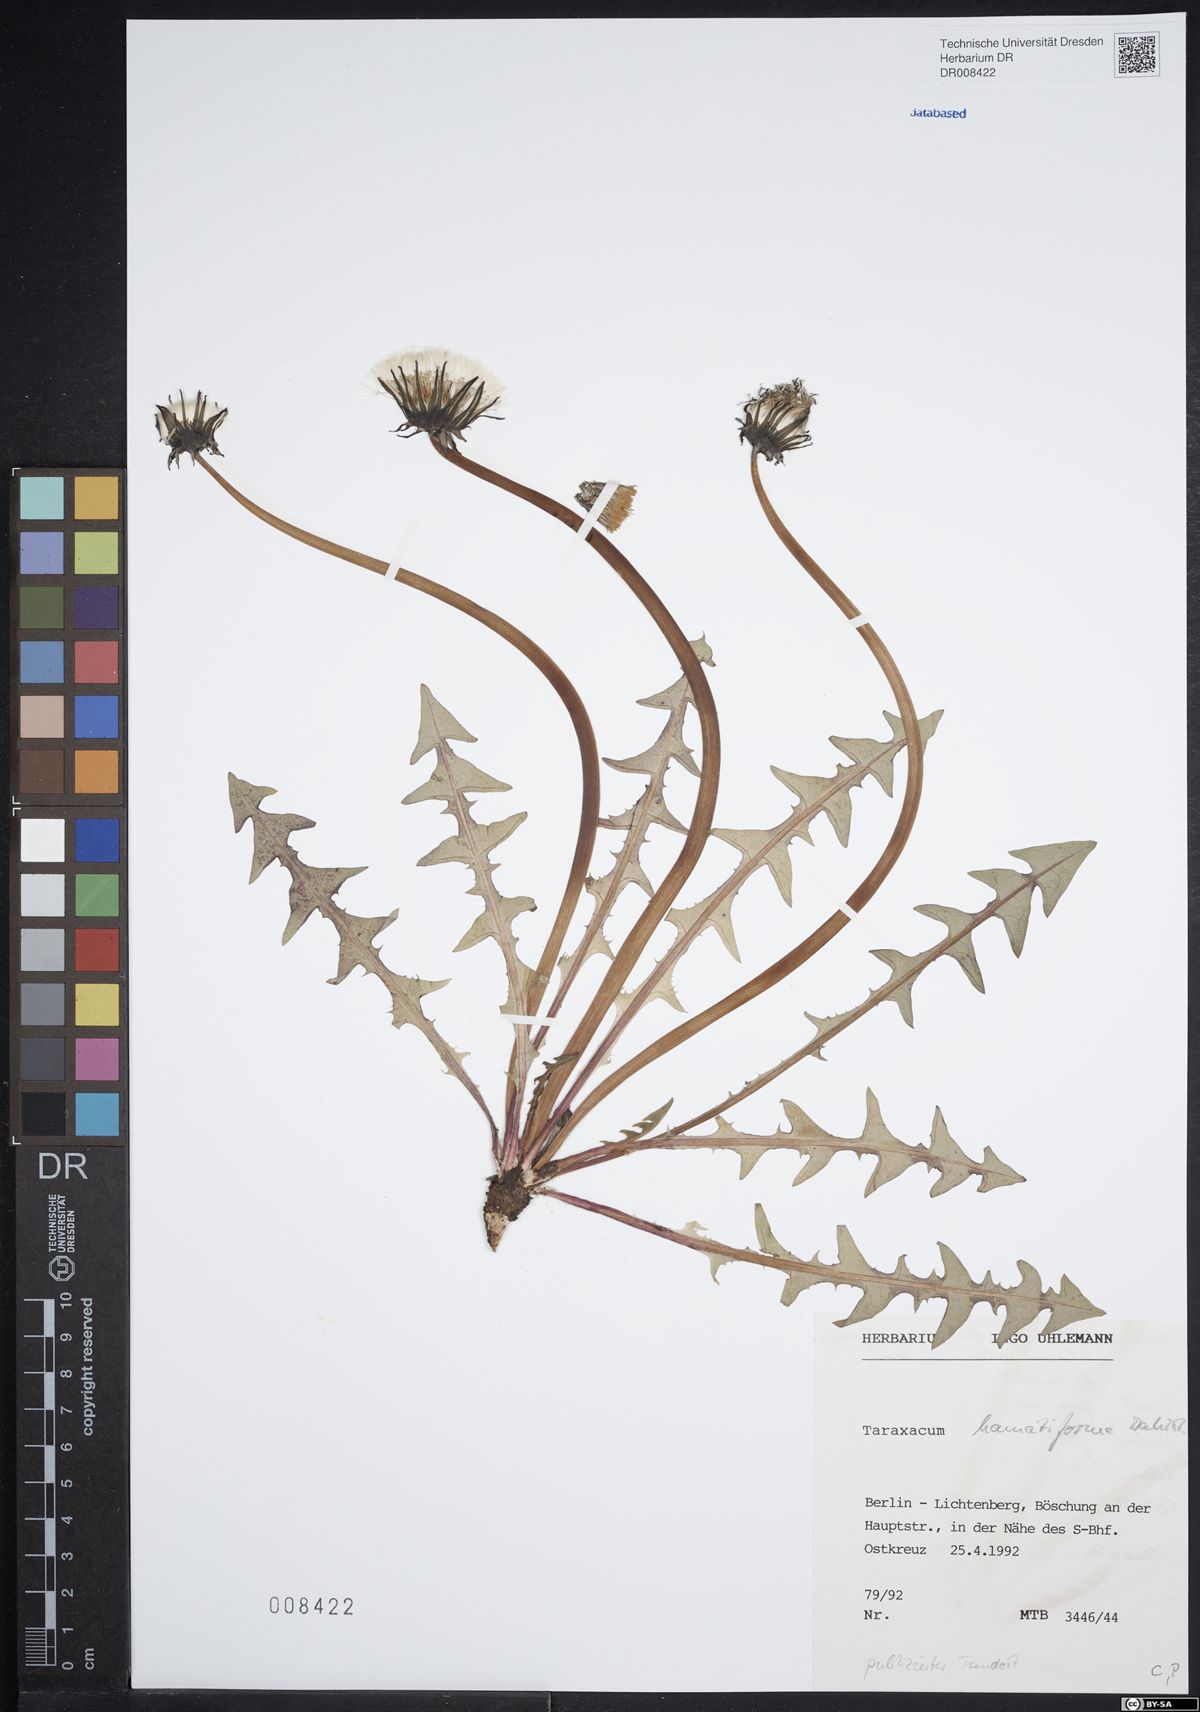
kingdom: Plantae
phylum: Tracheophyta
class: Magnoliopsida
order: Asterales
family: Asteraceae
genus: Taraxacum
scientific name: Taraxacum hamatiforme
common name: Asymmetrical hook-lobed dandelion
